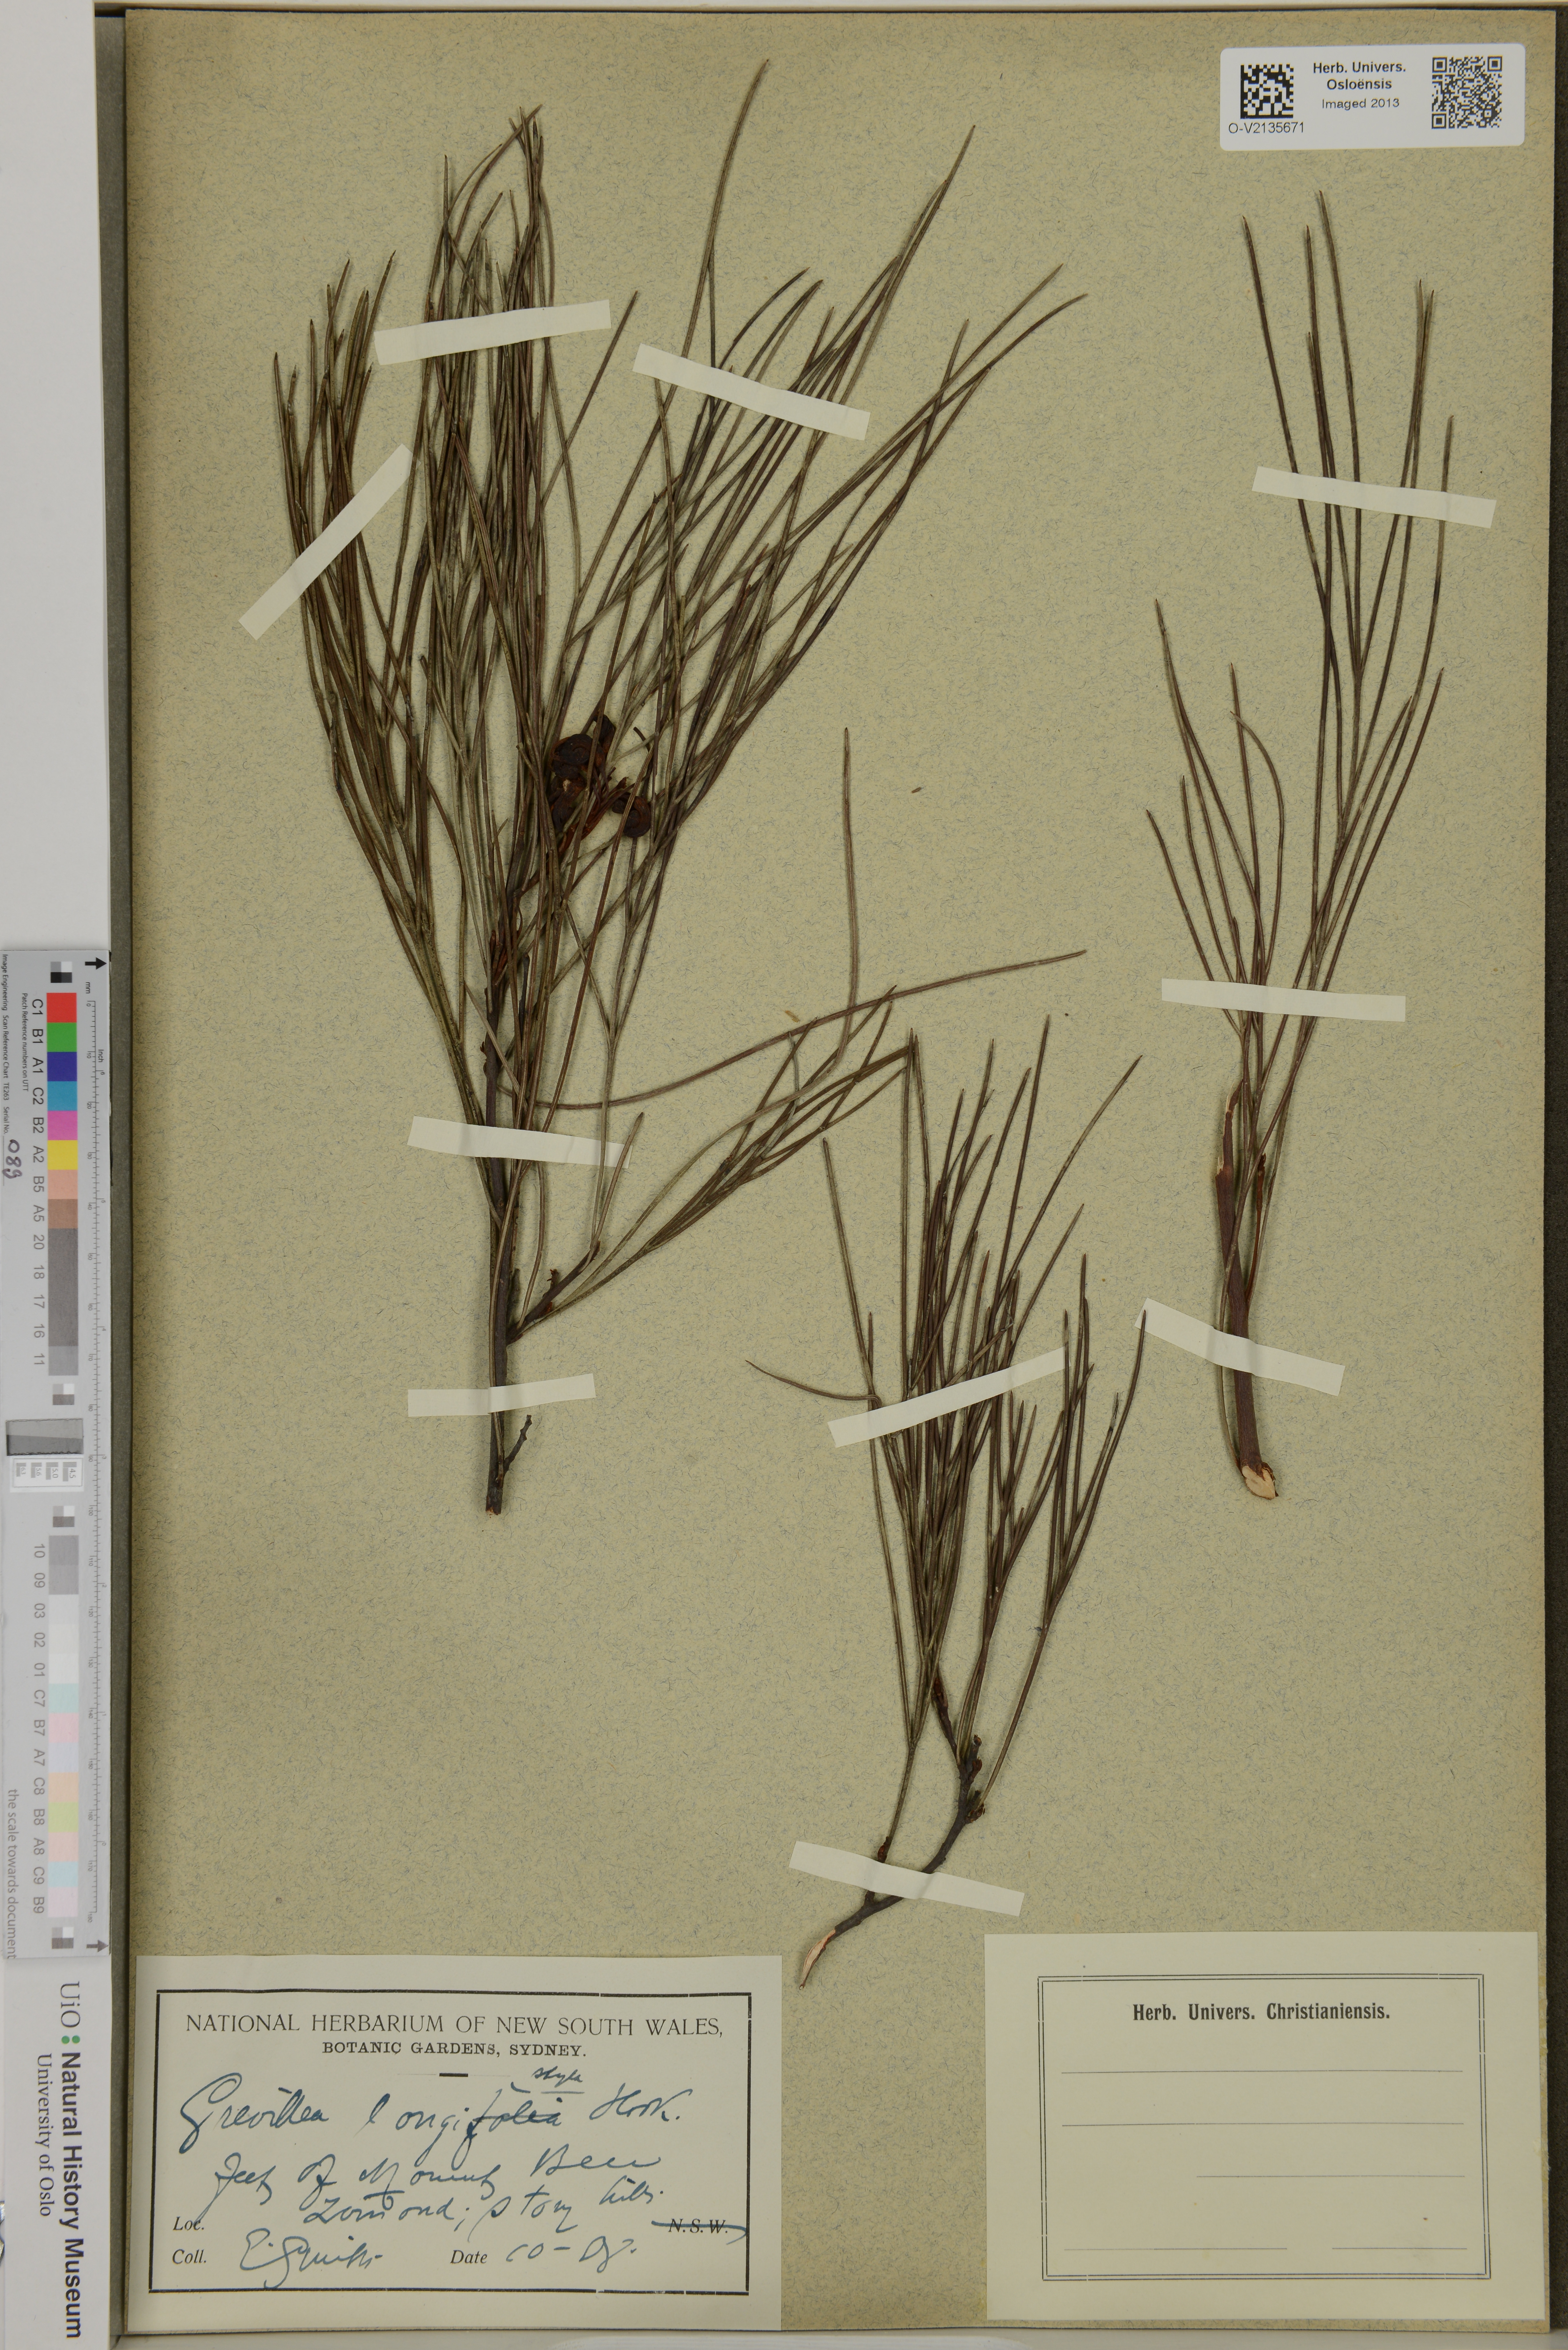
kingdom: Plantae
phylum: Tracheophyta
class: Magnoliopsida
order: Proteales
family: Proteaceae
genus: Grevillea
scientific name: Grevillea longistyla
